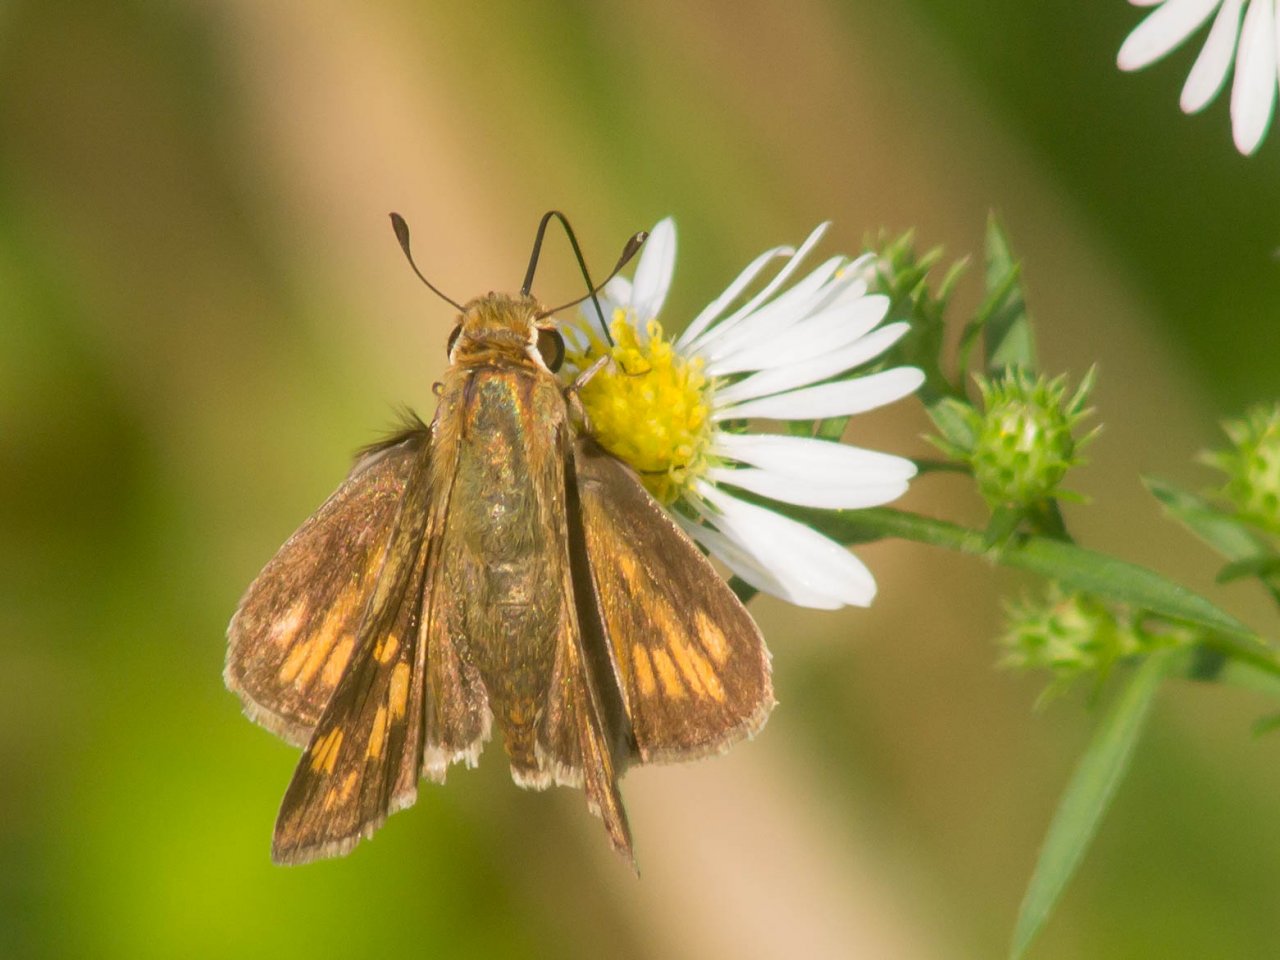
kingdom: Animalia
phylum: Arthropoda
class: Insecta
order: Lepidoptera
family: Hesperiidae
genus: Polites
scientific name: Polites coras
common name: Peck's Skipper
